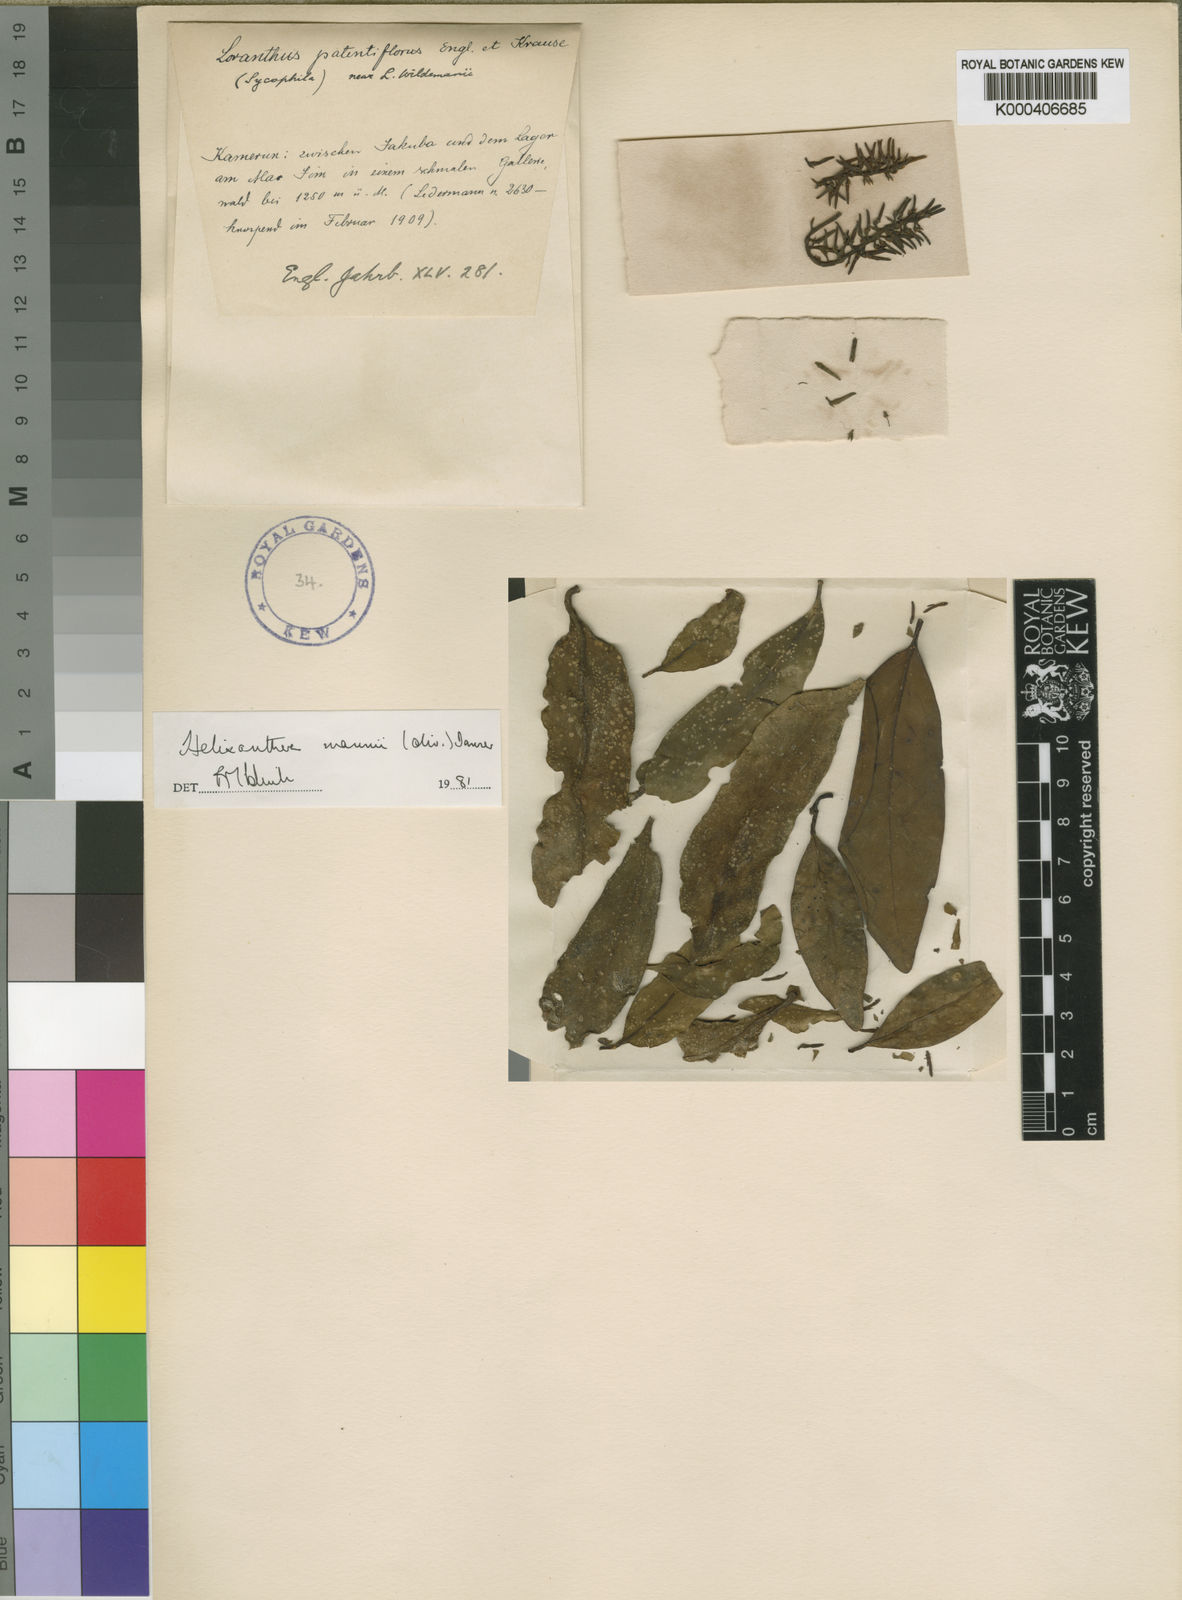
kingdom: Plantae
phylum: Tracheophyta
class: Magnoliopsida
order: Santalales
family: Loranthaceae
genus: Helixanthera
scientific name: Helixanthera mannii
